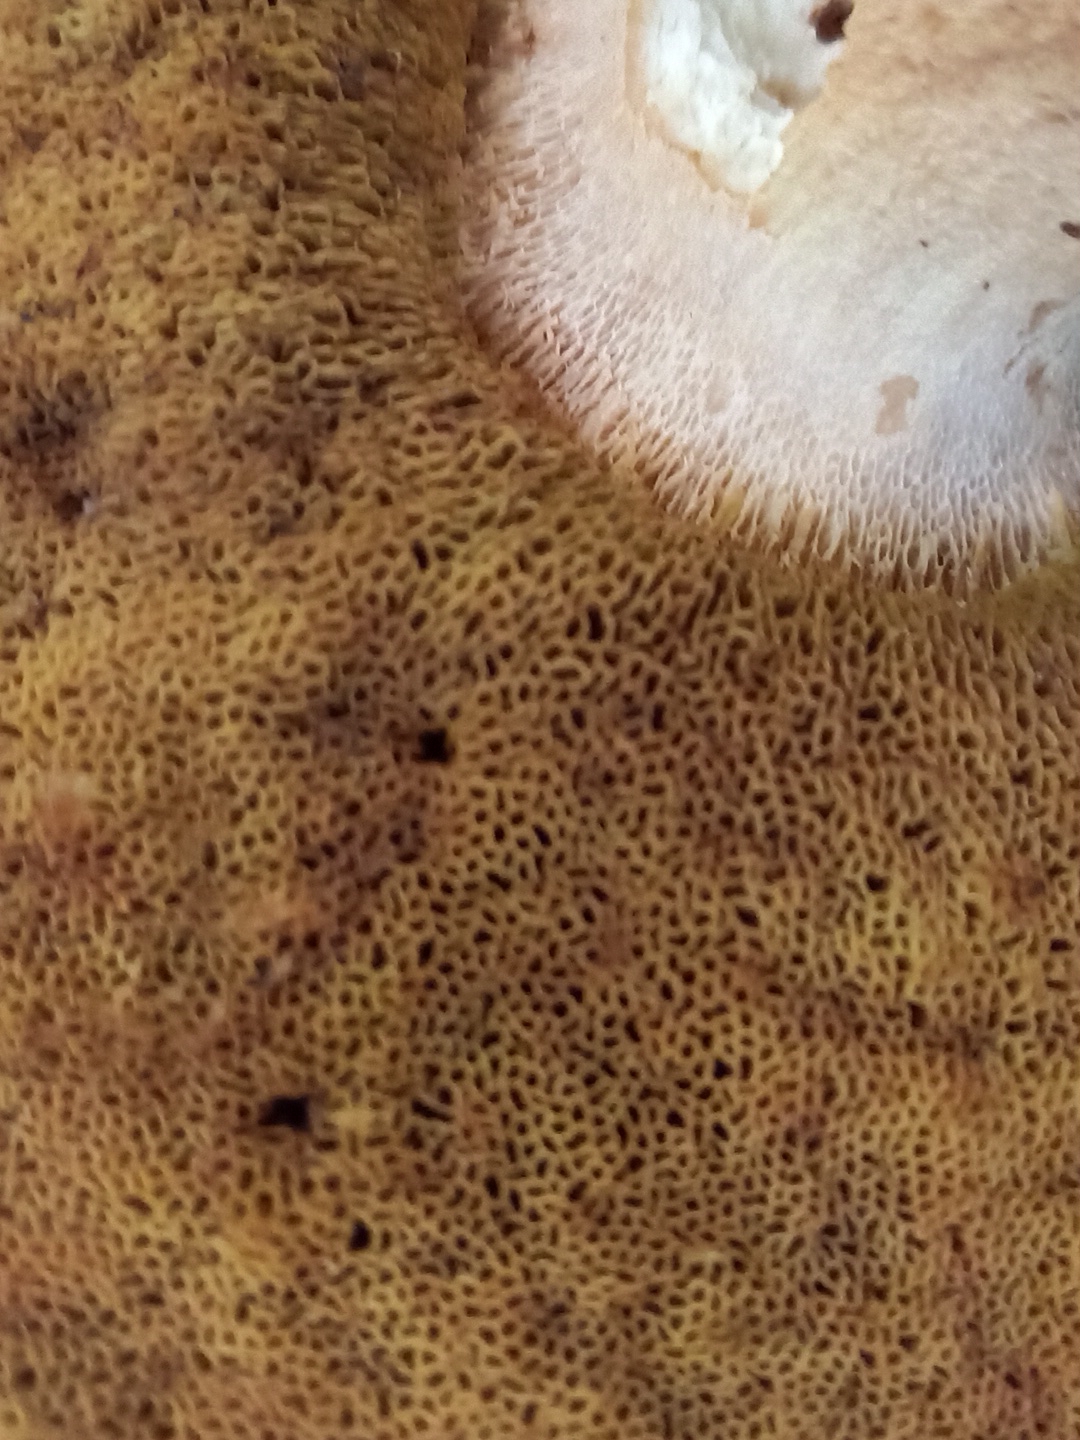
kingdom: Fungi
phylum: Basidiomycota
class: Agaricomycetes
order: Boletales
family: Boletaceae
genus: Boletus
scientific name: Boletus edulis
